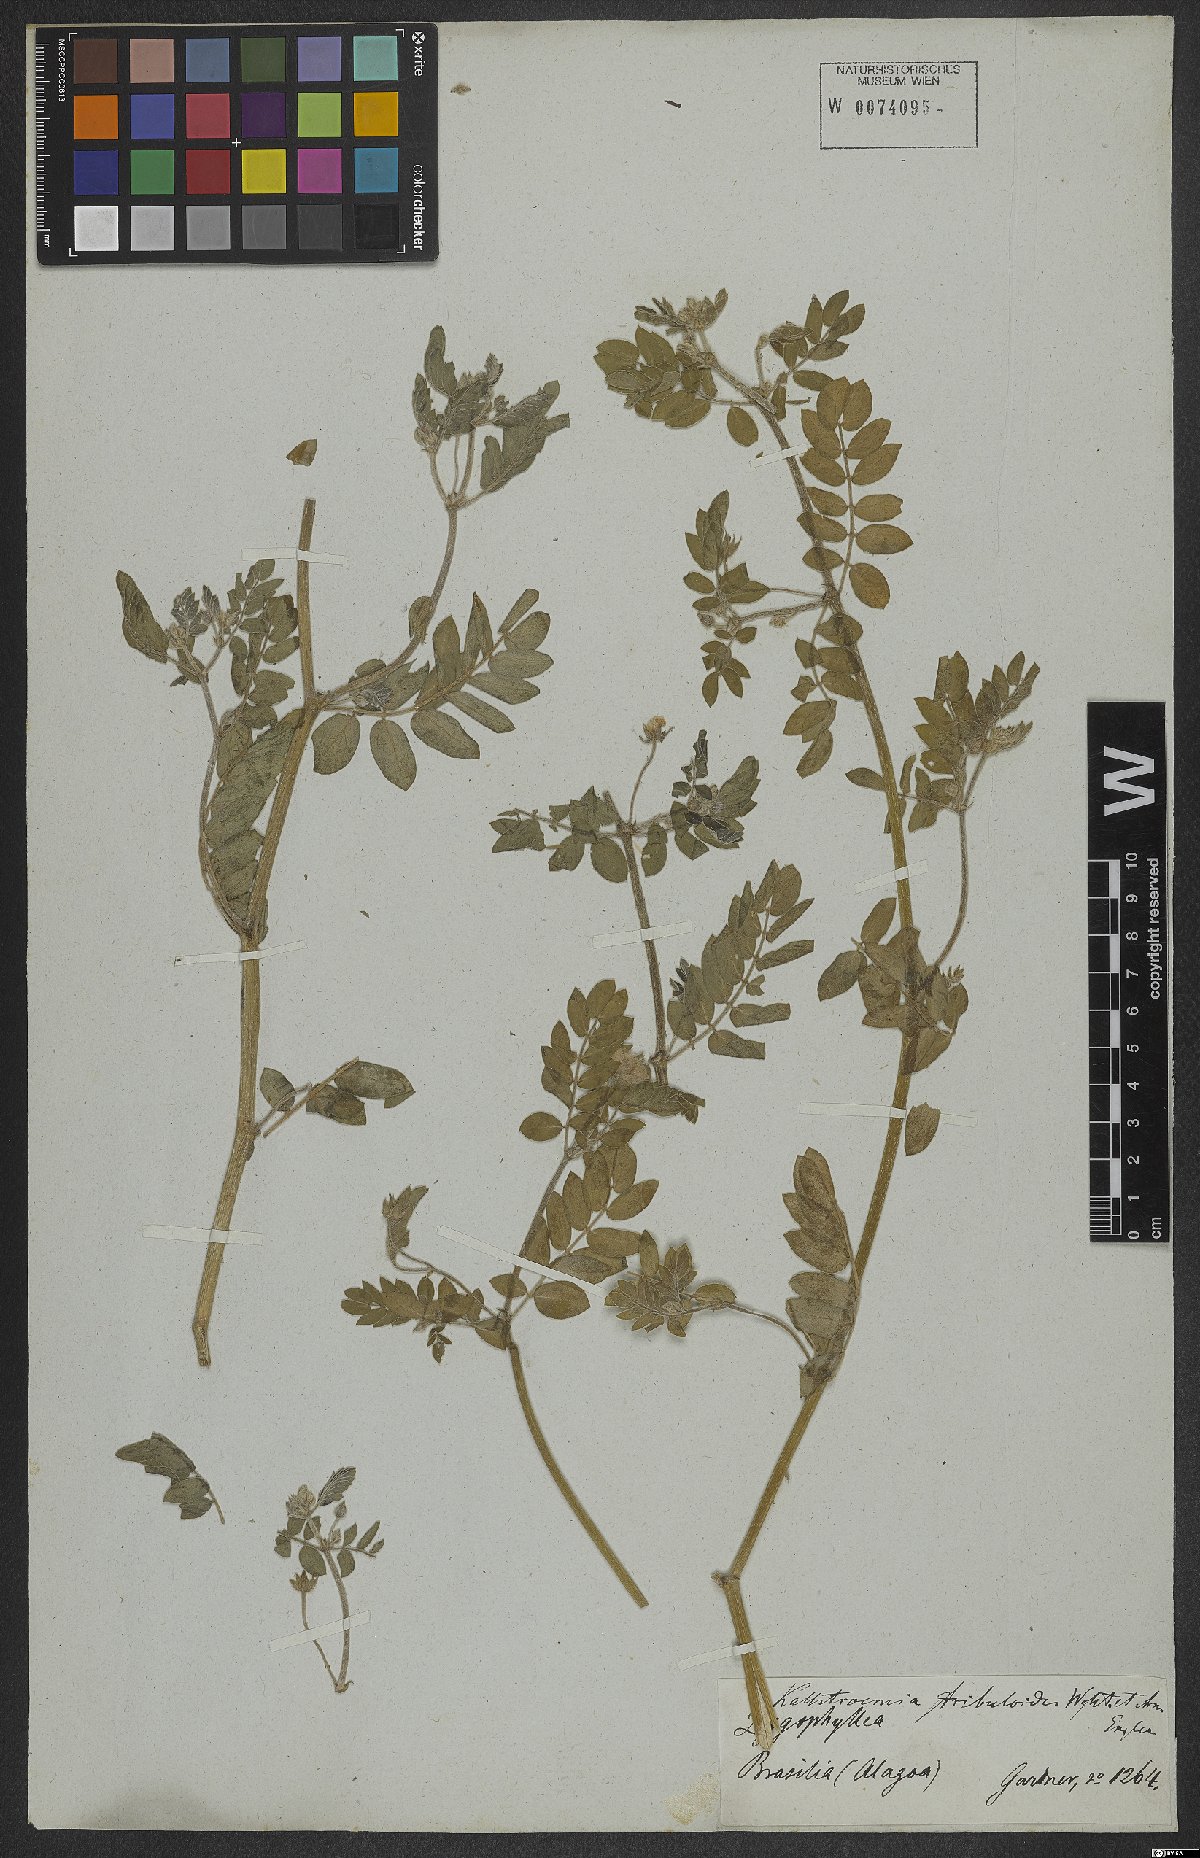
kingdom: Plantae
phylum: Tracheophyta
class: Magnoliopsida
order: Zygophyllales
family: Zygophyllaceae
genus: Kallstroemia
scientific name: Kallstroemia maxima
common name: Big caltropa
